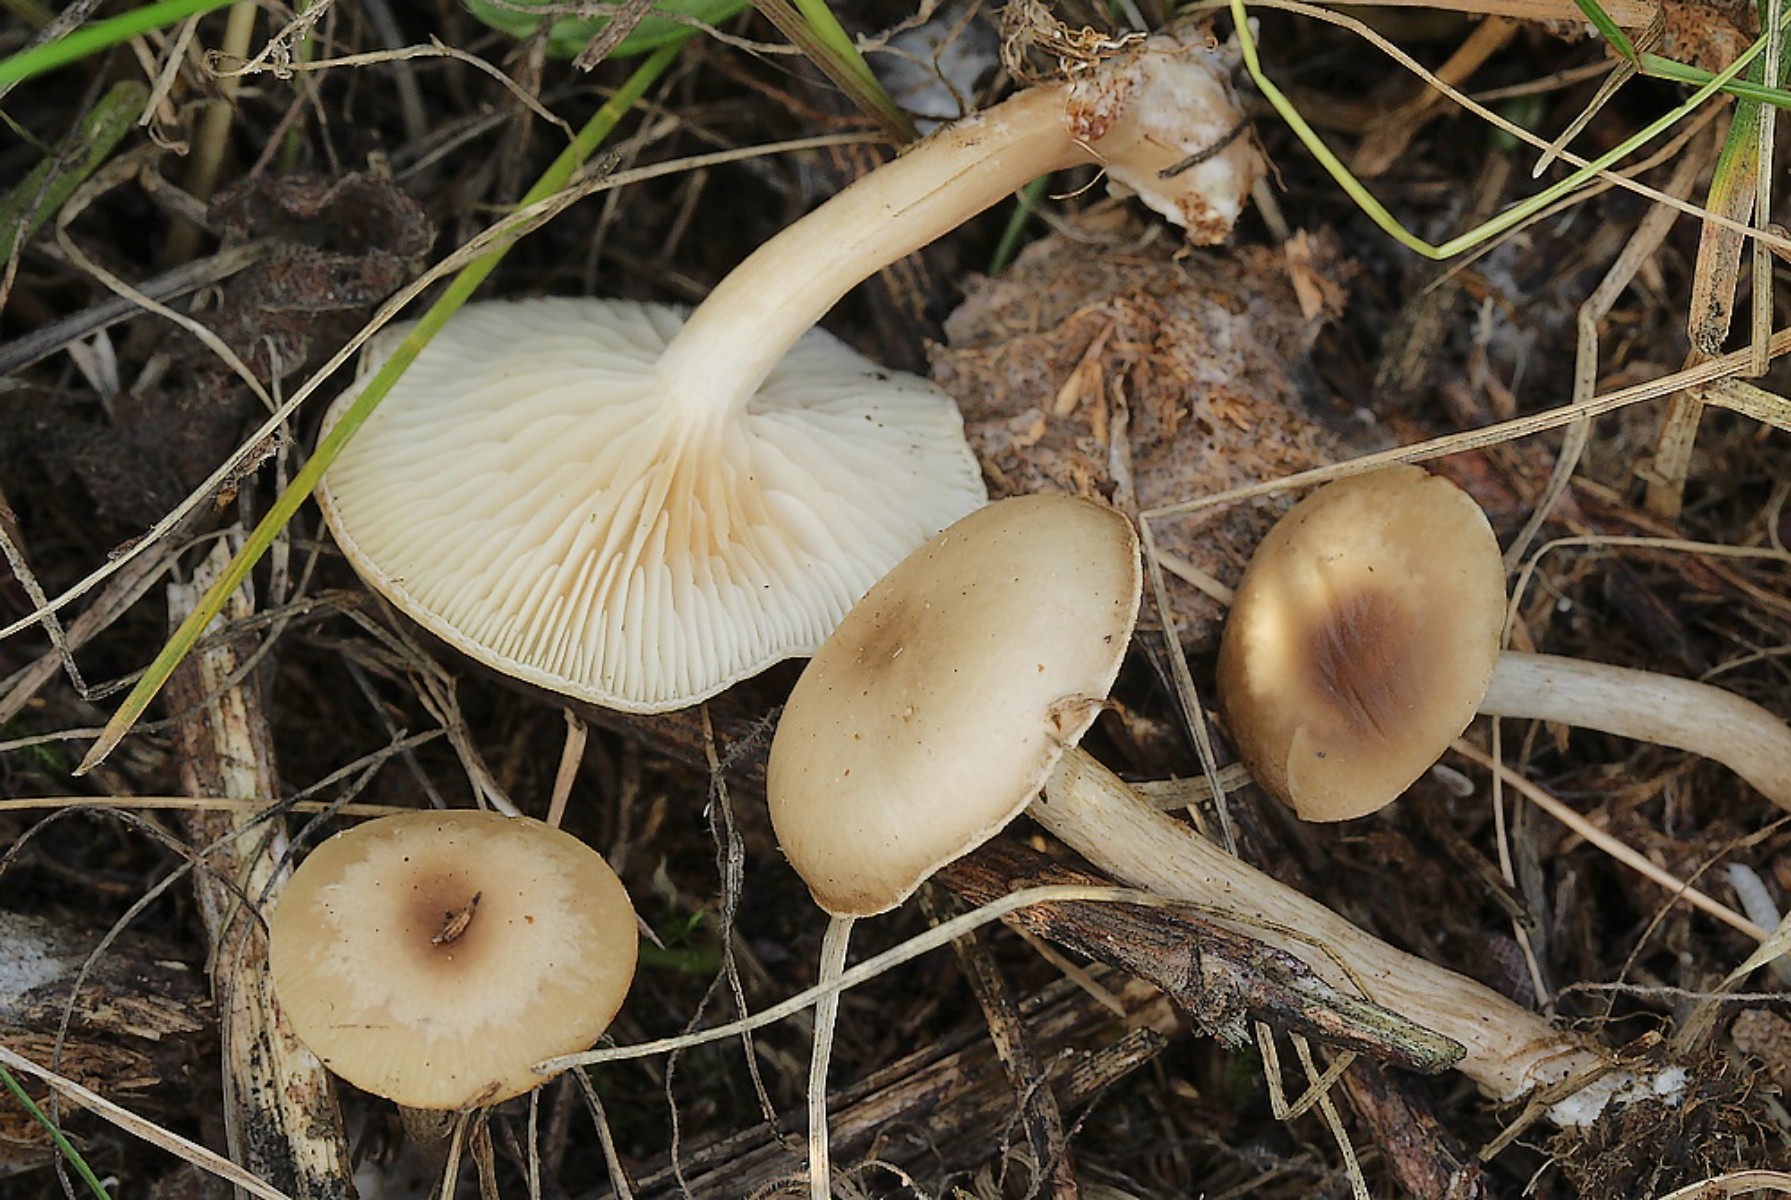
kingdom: Fungi
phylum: Basidiomycota
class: Agaricomycetes
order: Agaricales
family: Tricholomataceae
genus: Clitocybe
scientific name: Clitocybe amarescens
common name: gødnings-tragthat
